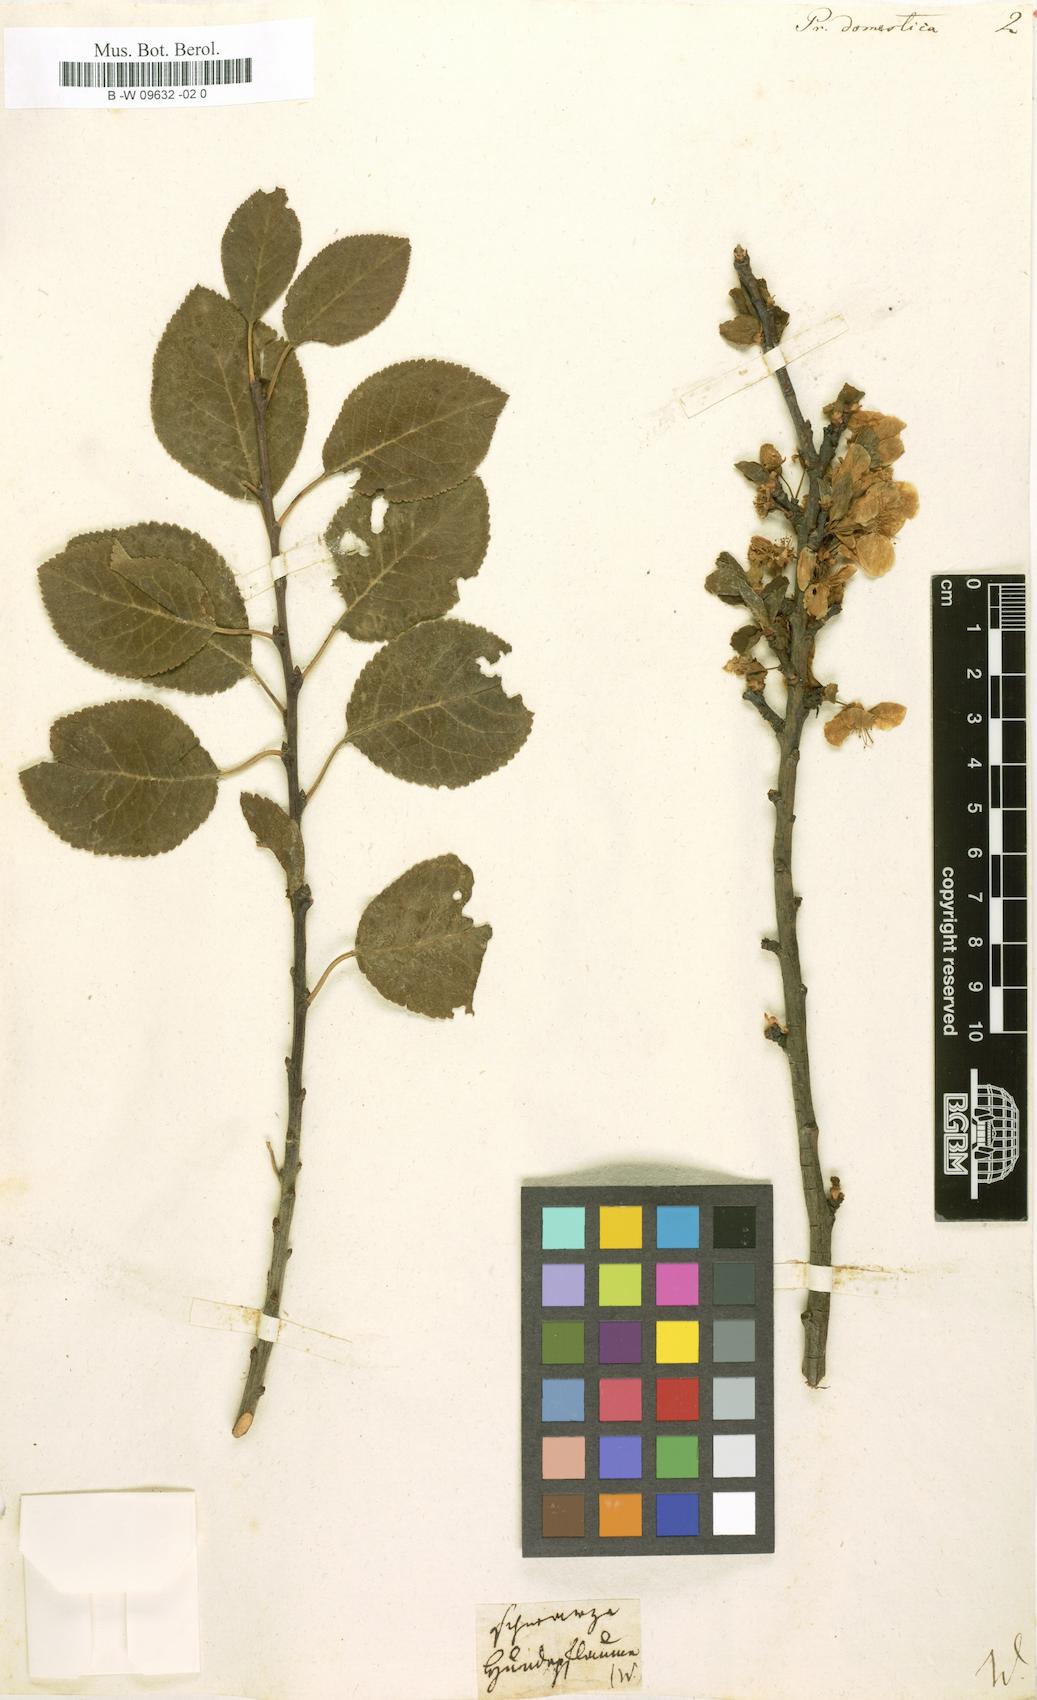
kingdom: Plantae
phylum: Tracheophyta
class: Magnoliopsida
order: Rosales
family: Rosaceae
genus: Prunus
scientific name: Prunus domestica
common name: Wild plum
